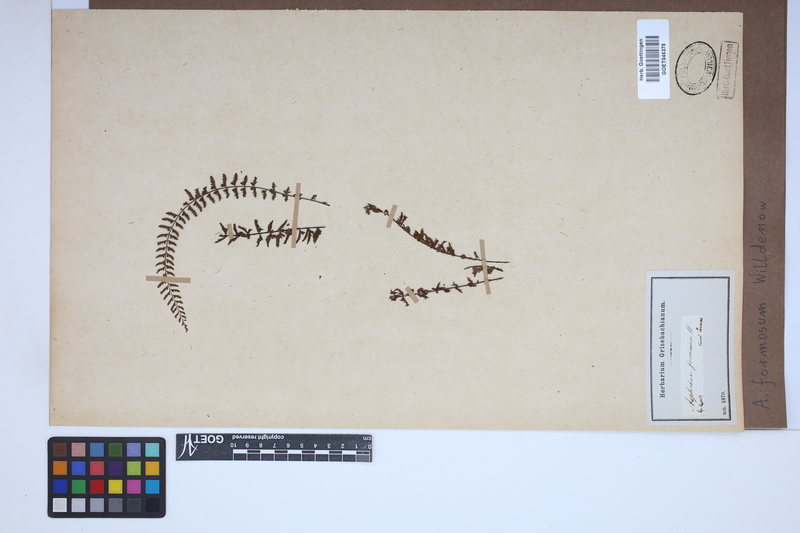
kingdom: Plantae
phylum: Tracheophyta
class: Polypodiopsida
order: Polypodiales
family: Aspleniaceae
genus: Asplenium
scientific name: Asplenium formosum
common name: Showy spleenwort
